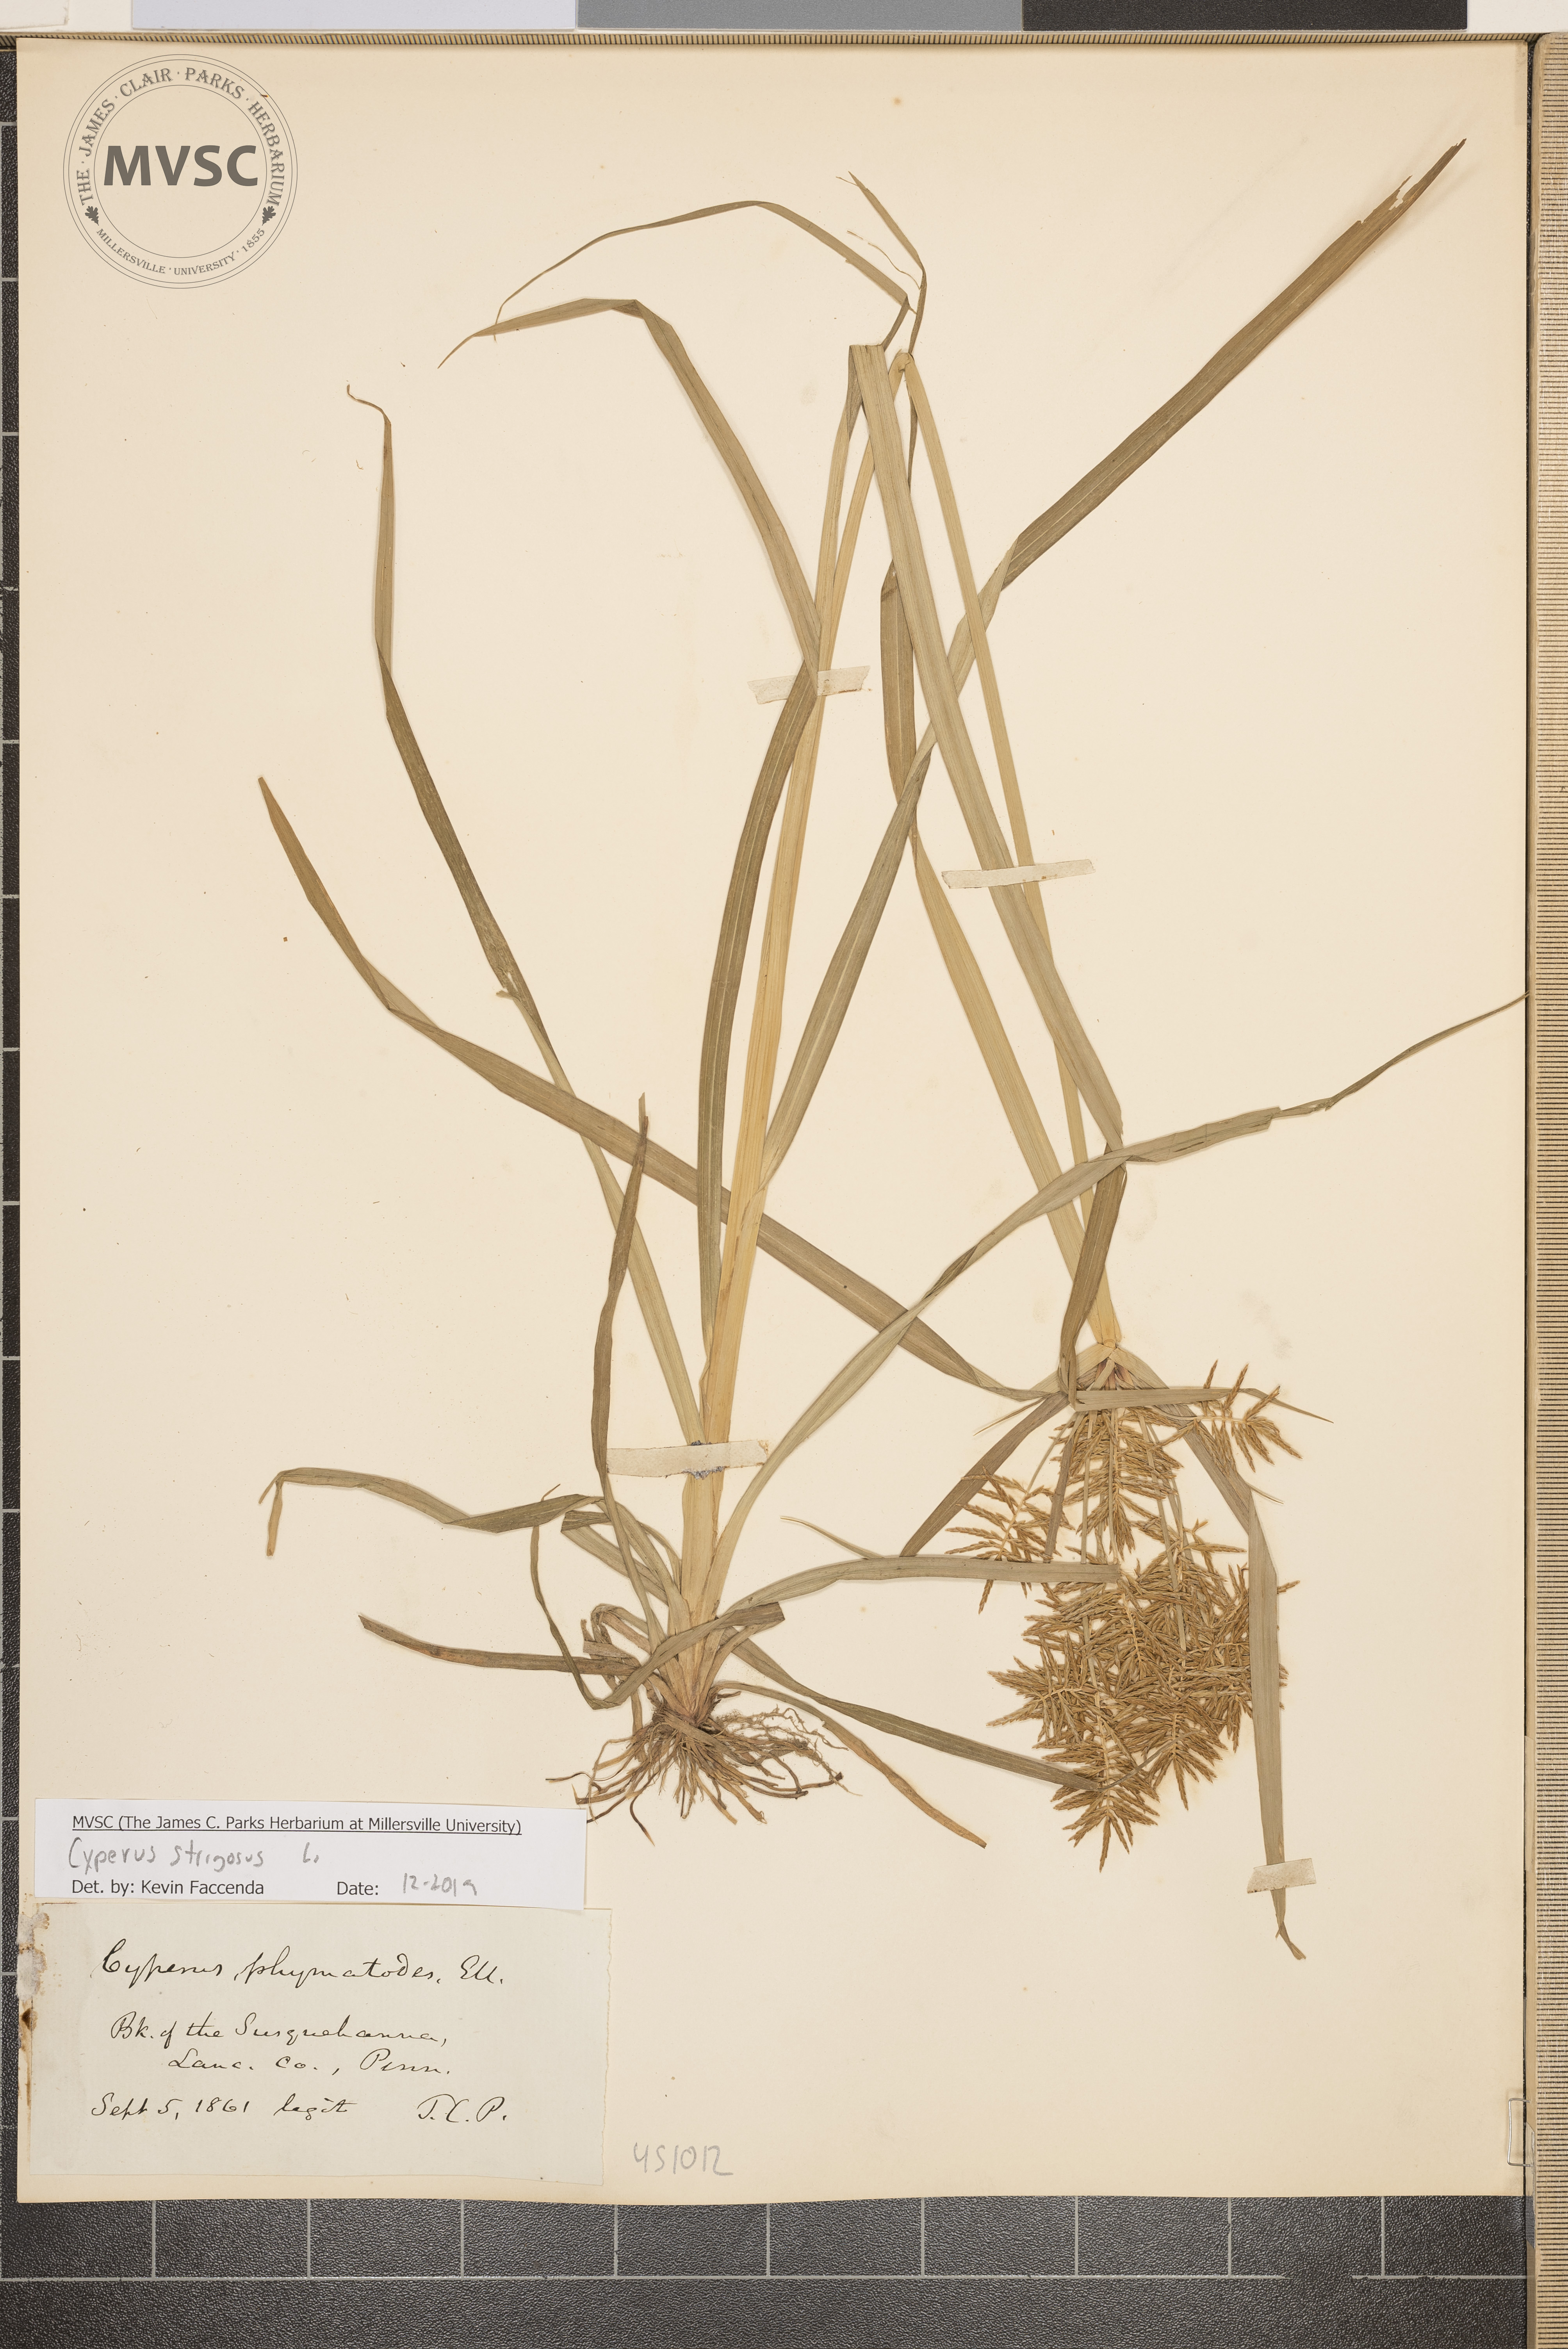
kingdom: Plantae
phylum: Tracheophyta
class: Liliopsida
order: Poales
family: Cyperaceae
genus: Cyperus
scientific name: Cyperus strigosus
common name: False nutsedge
